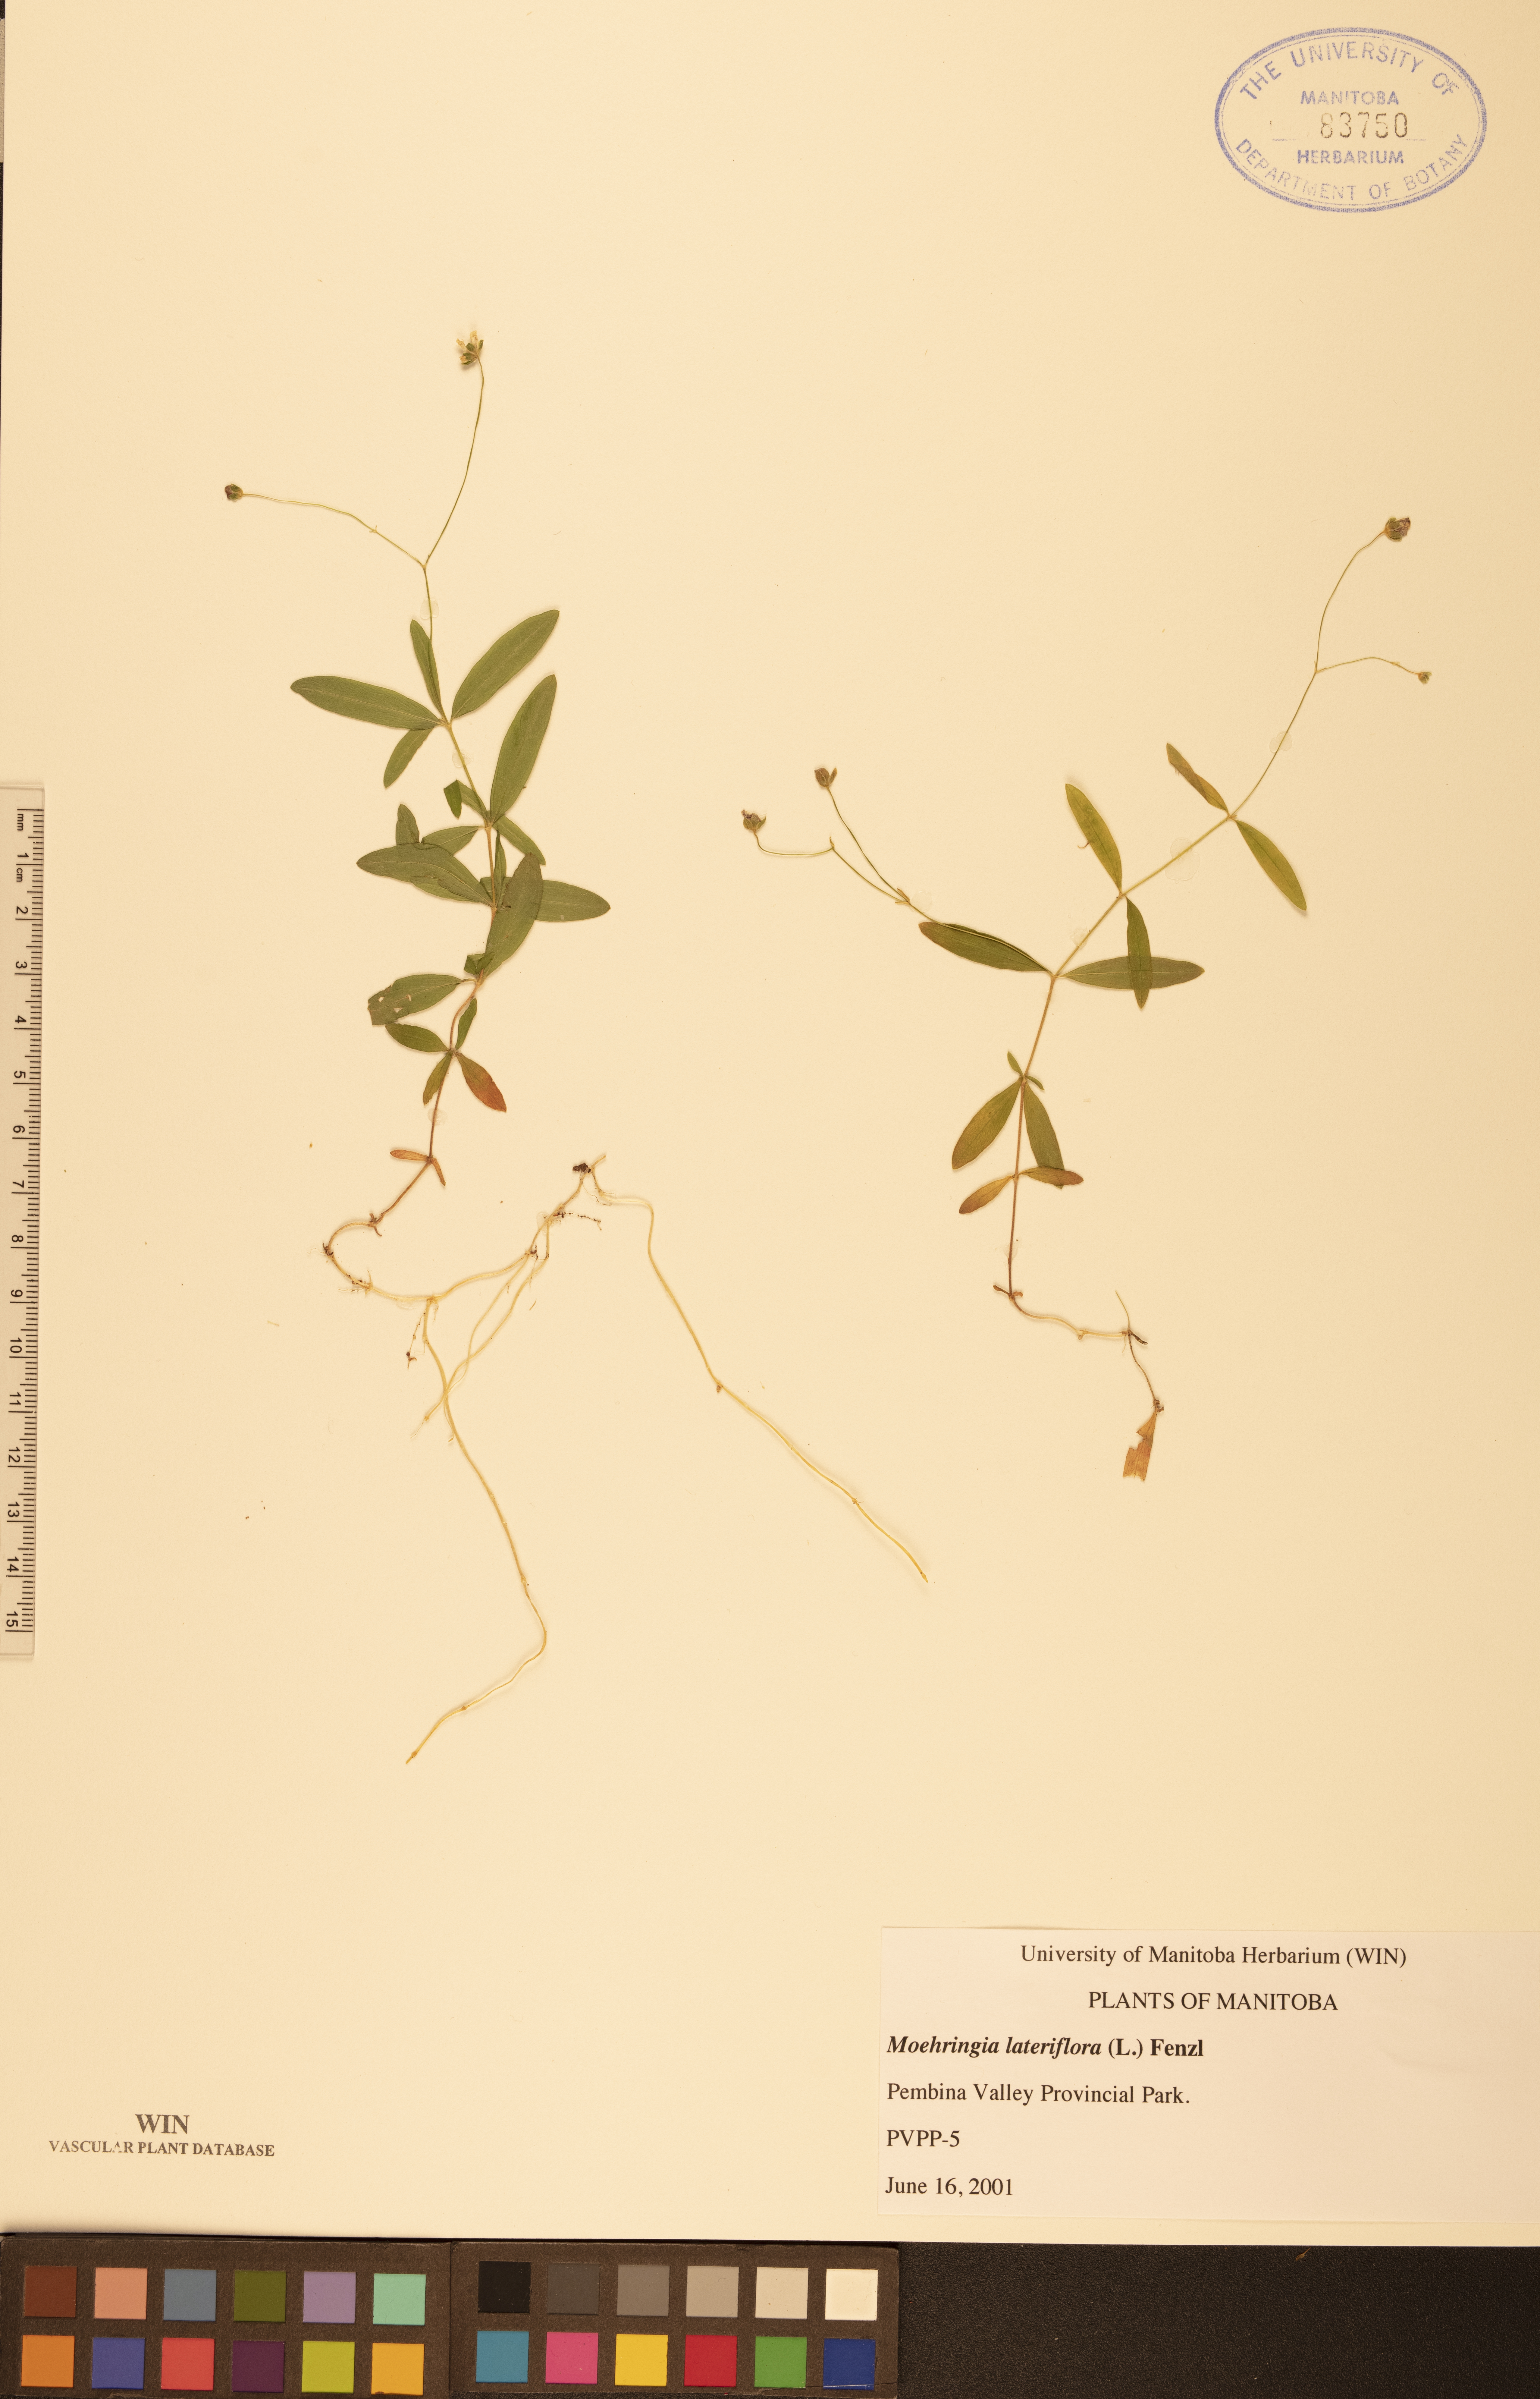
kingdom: Plantae
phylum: Tracheophyta
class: Magnoliopsida
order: Caryophyllales
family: Caryophyllaceae
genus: Moehringia
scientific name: Moehringia lateriflora
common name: Blunt-leaved sandwort
